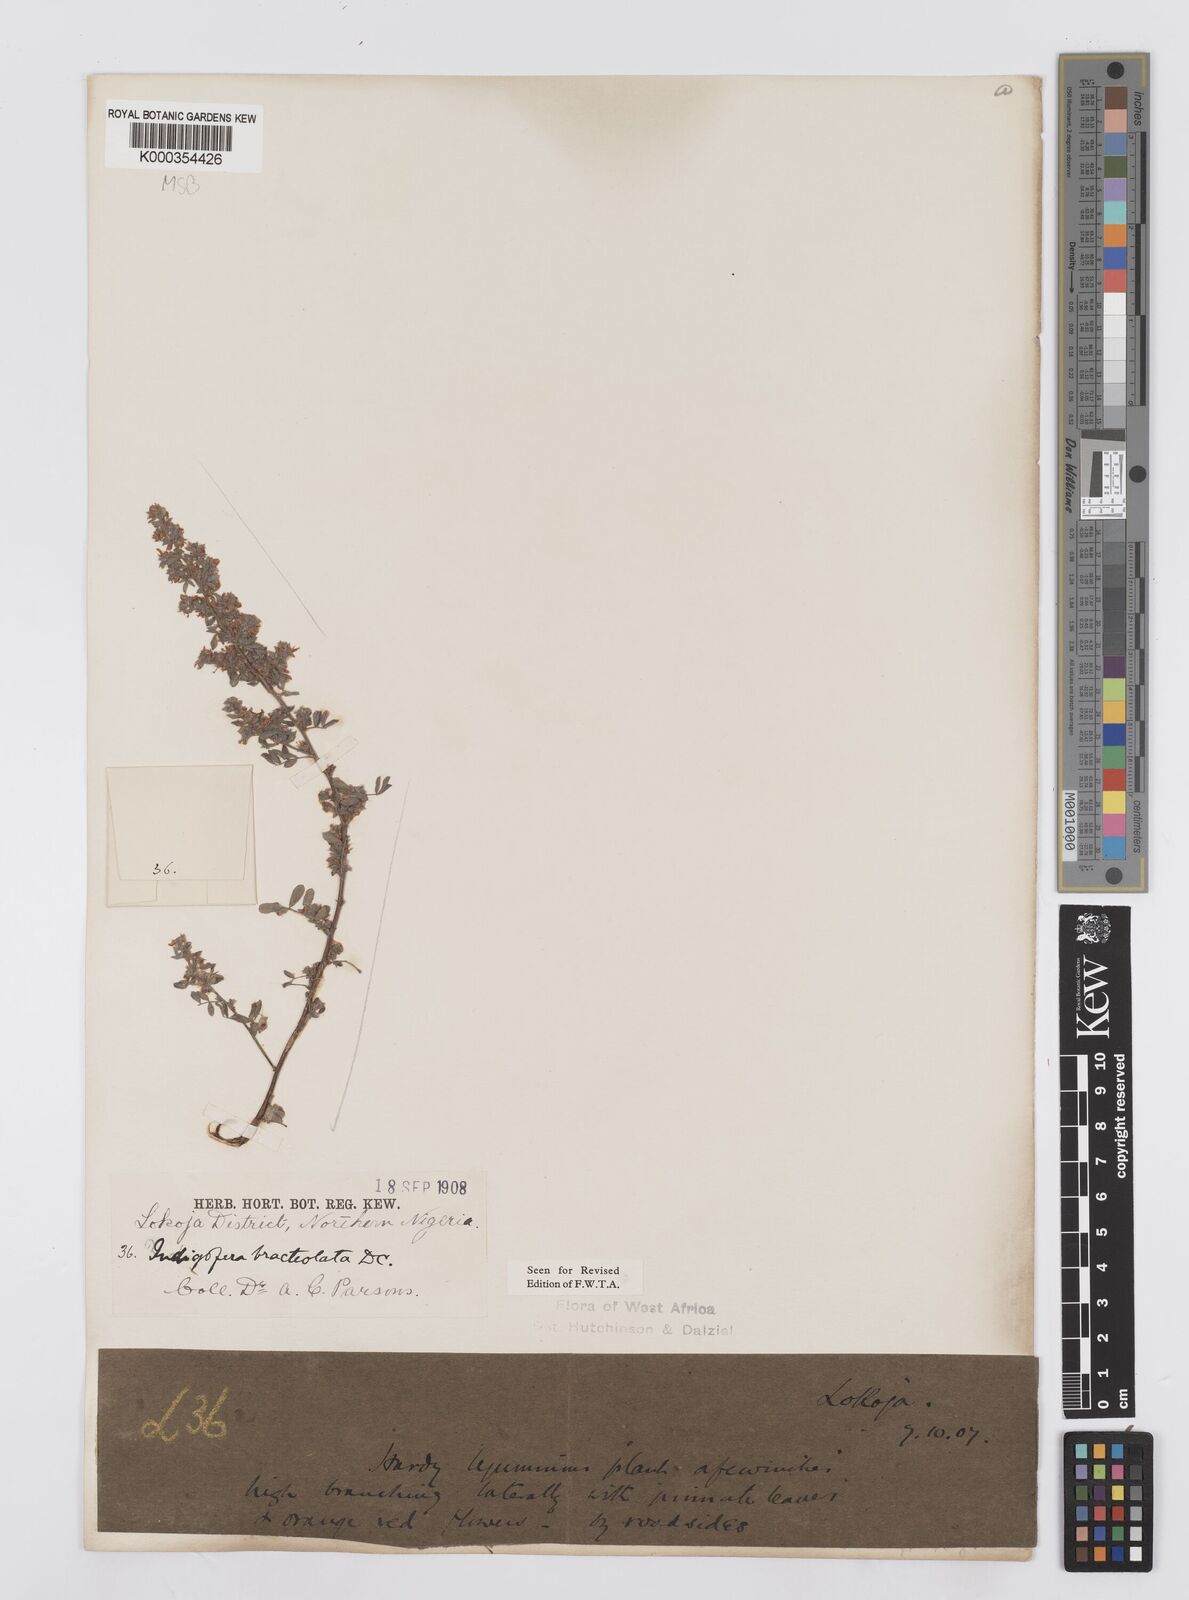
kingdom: Plantae
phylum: Tracheophyta
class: Magnoliopsida
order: Fabales
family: Fabaceae
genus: Indigofera
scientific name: Indigofera bracteolata
